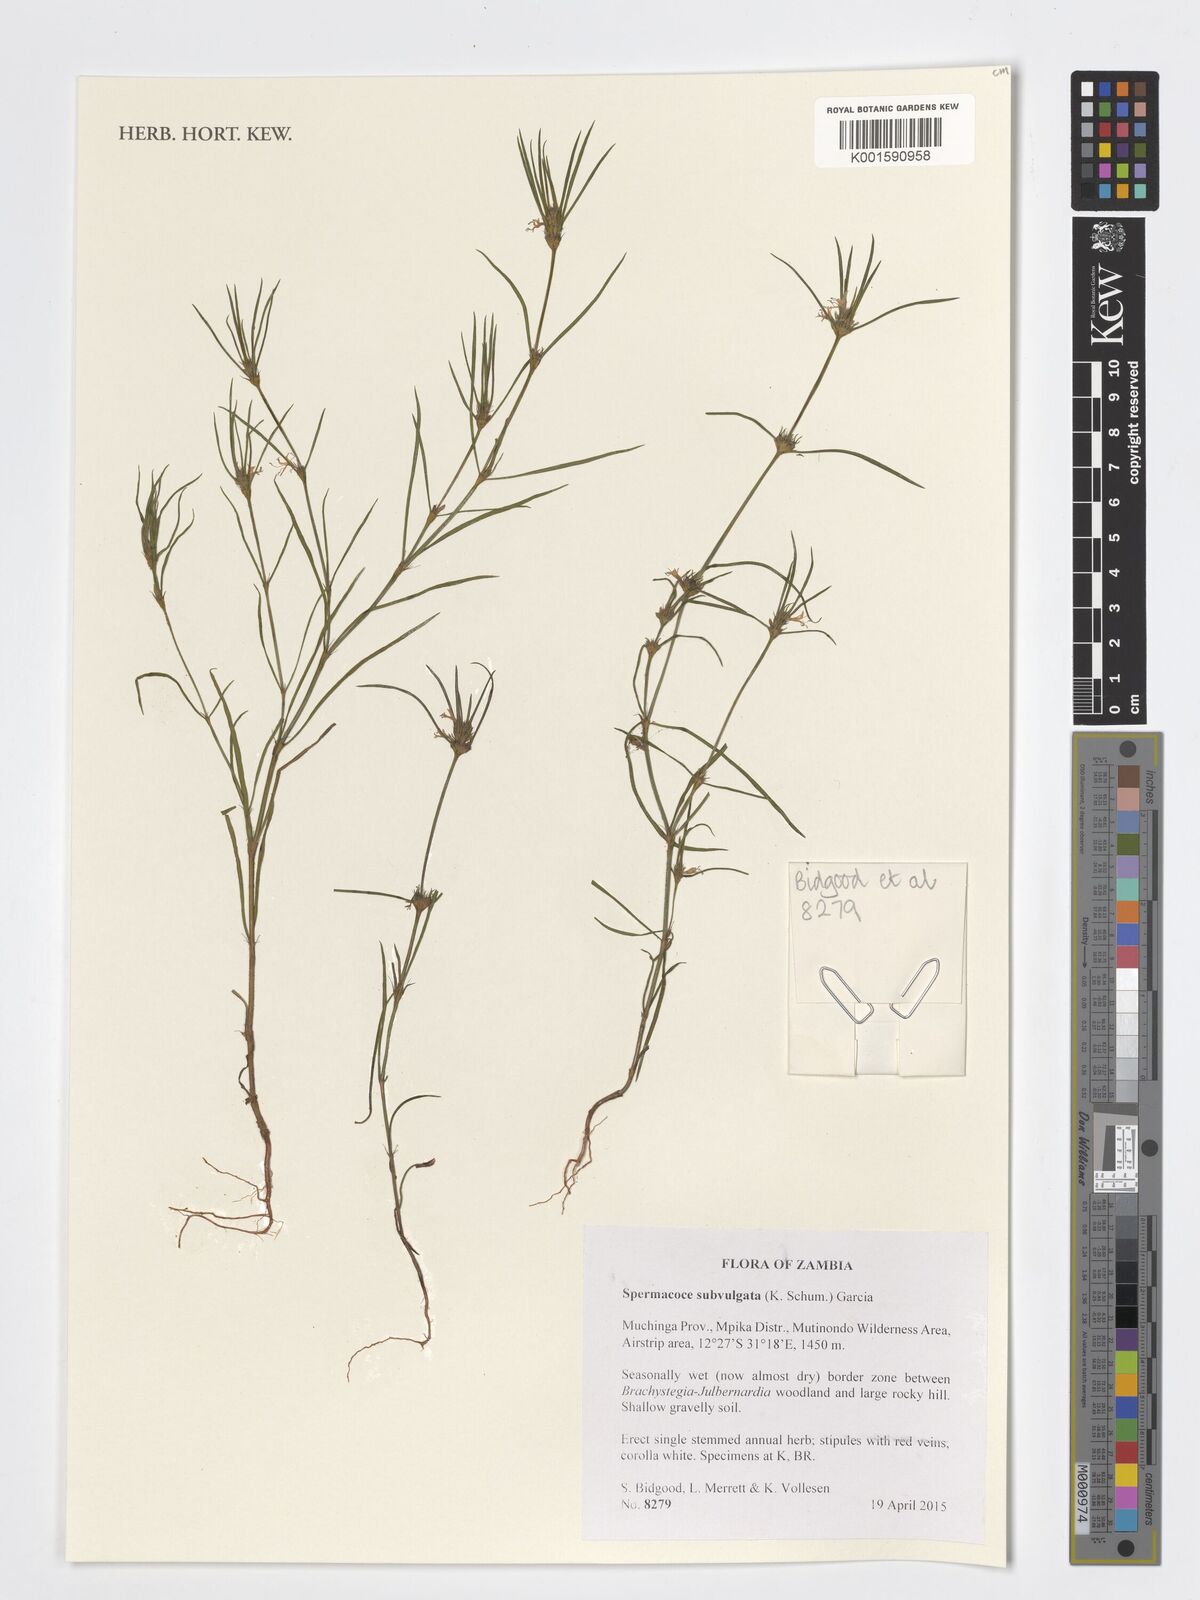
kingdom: Plantae
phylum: Tracheophyta
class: Magnoliopsida
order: Gentianales
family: Rubiaceae
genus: Spermacoce
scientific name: Spermacoce subvulgata
